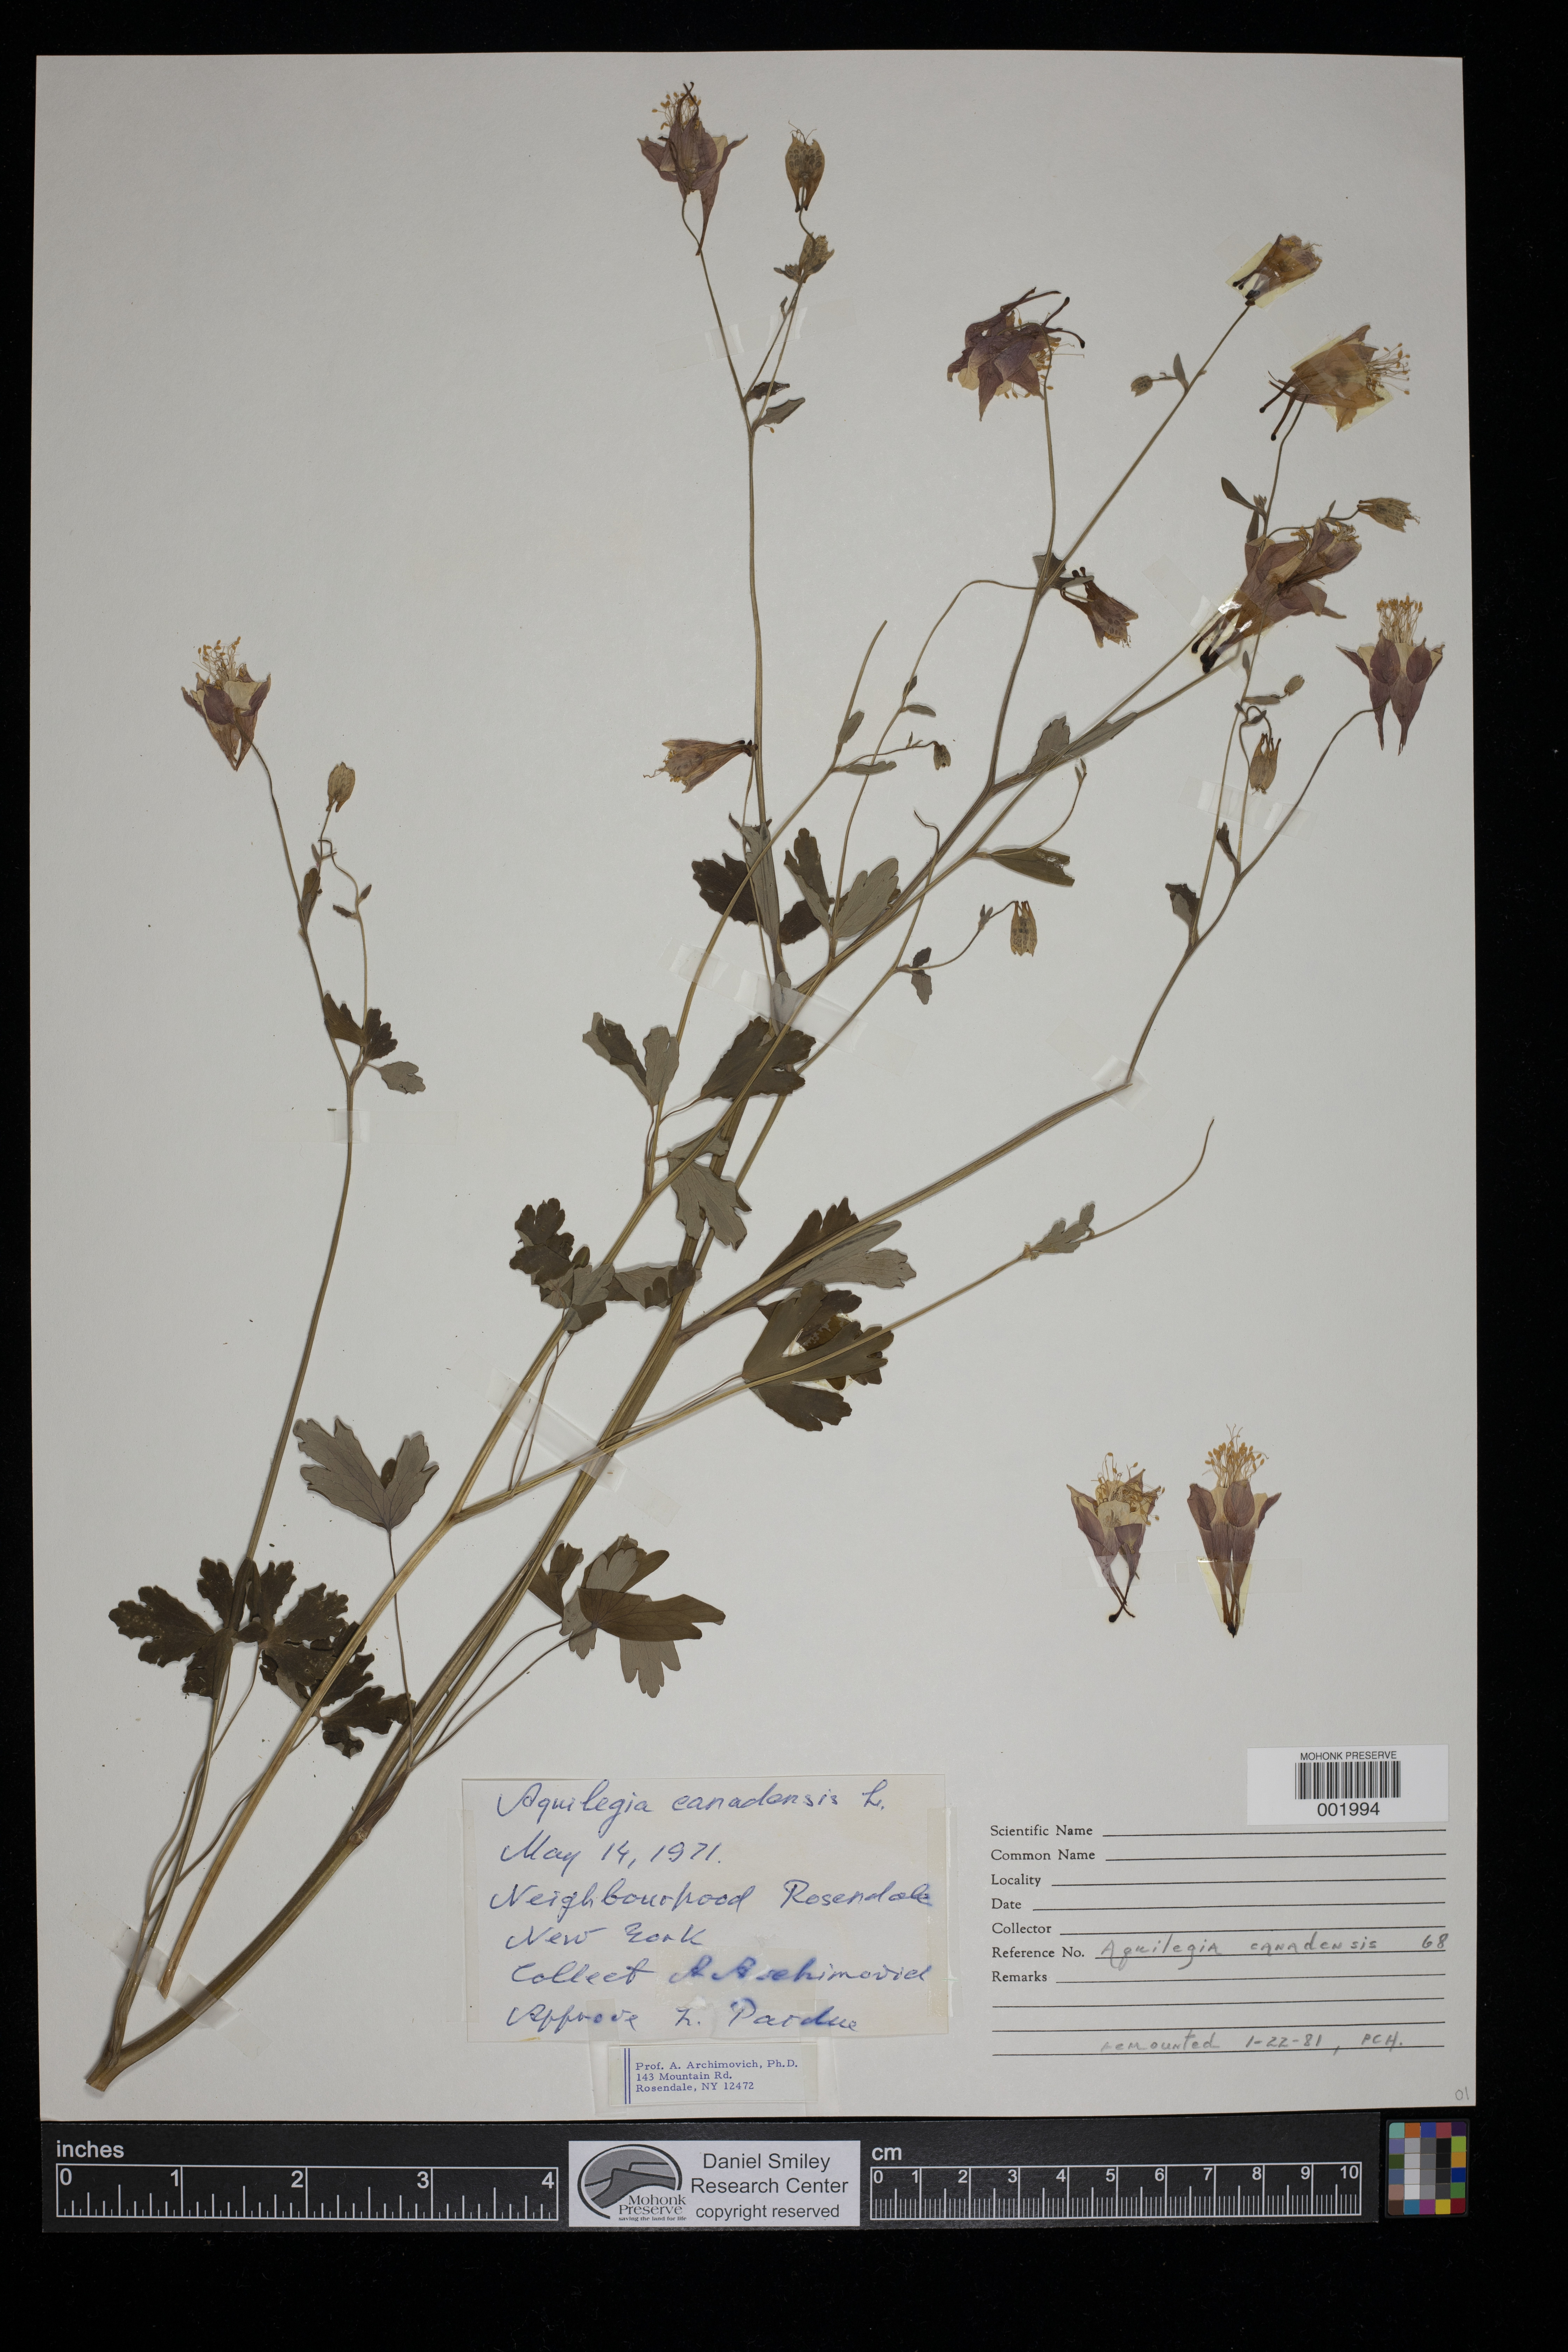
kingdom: Plantae
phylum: Tracheophyta
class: Magnoliopsida
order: Ranunculales
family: Ranunculaceae
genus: Aquilegia
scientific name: Aquilegia canadensis
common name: American columbine
